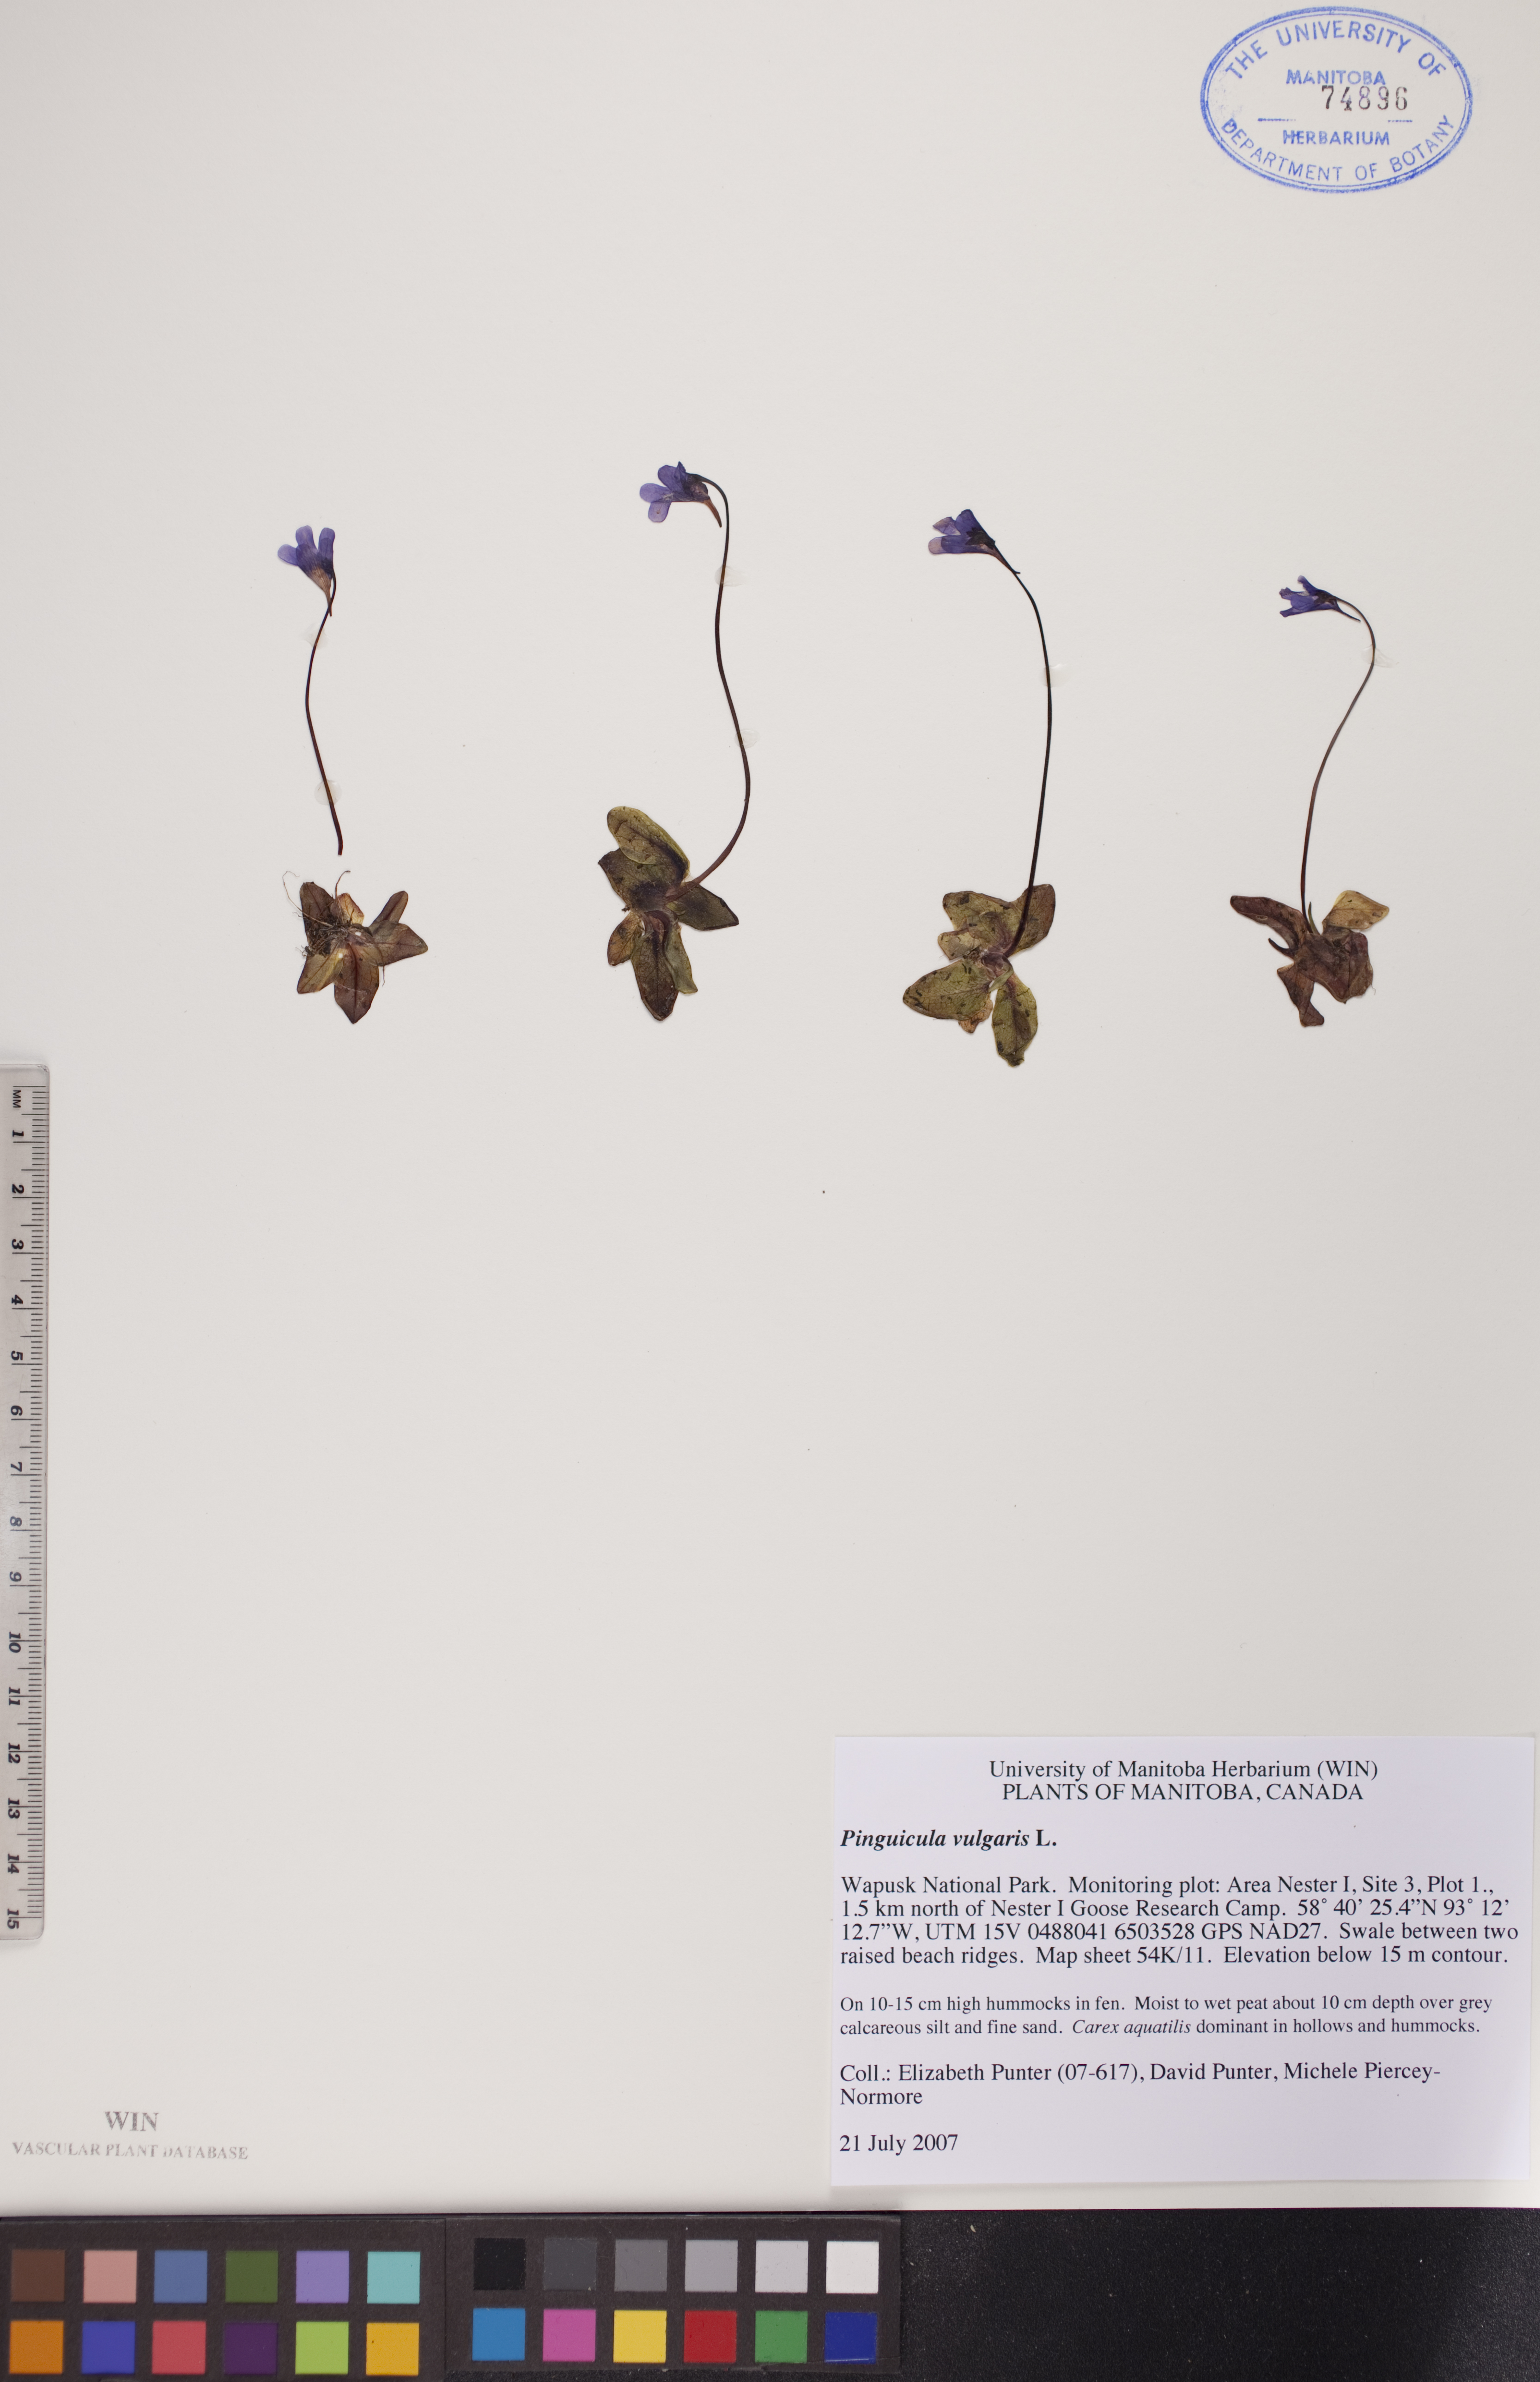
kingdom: Plantae
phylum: Tracheophyta
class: Magnoliopsida
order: Lamiales
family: Lentibulariaceae
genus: Pinguicula
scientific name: Pinguicula vulgaris
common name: Common butterwort
